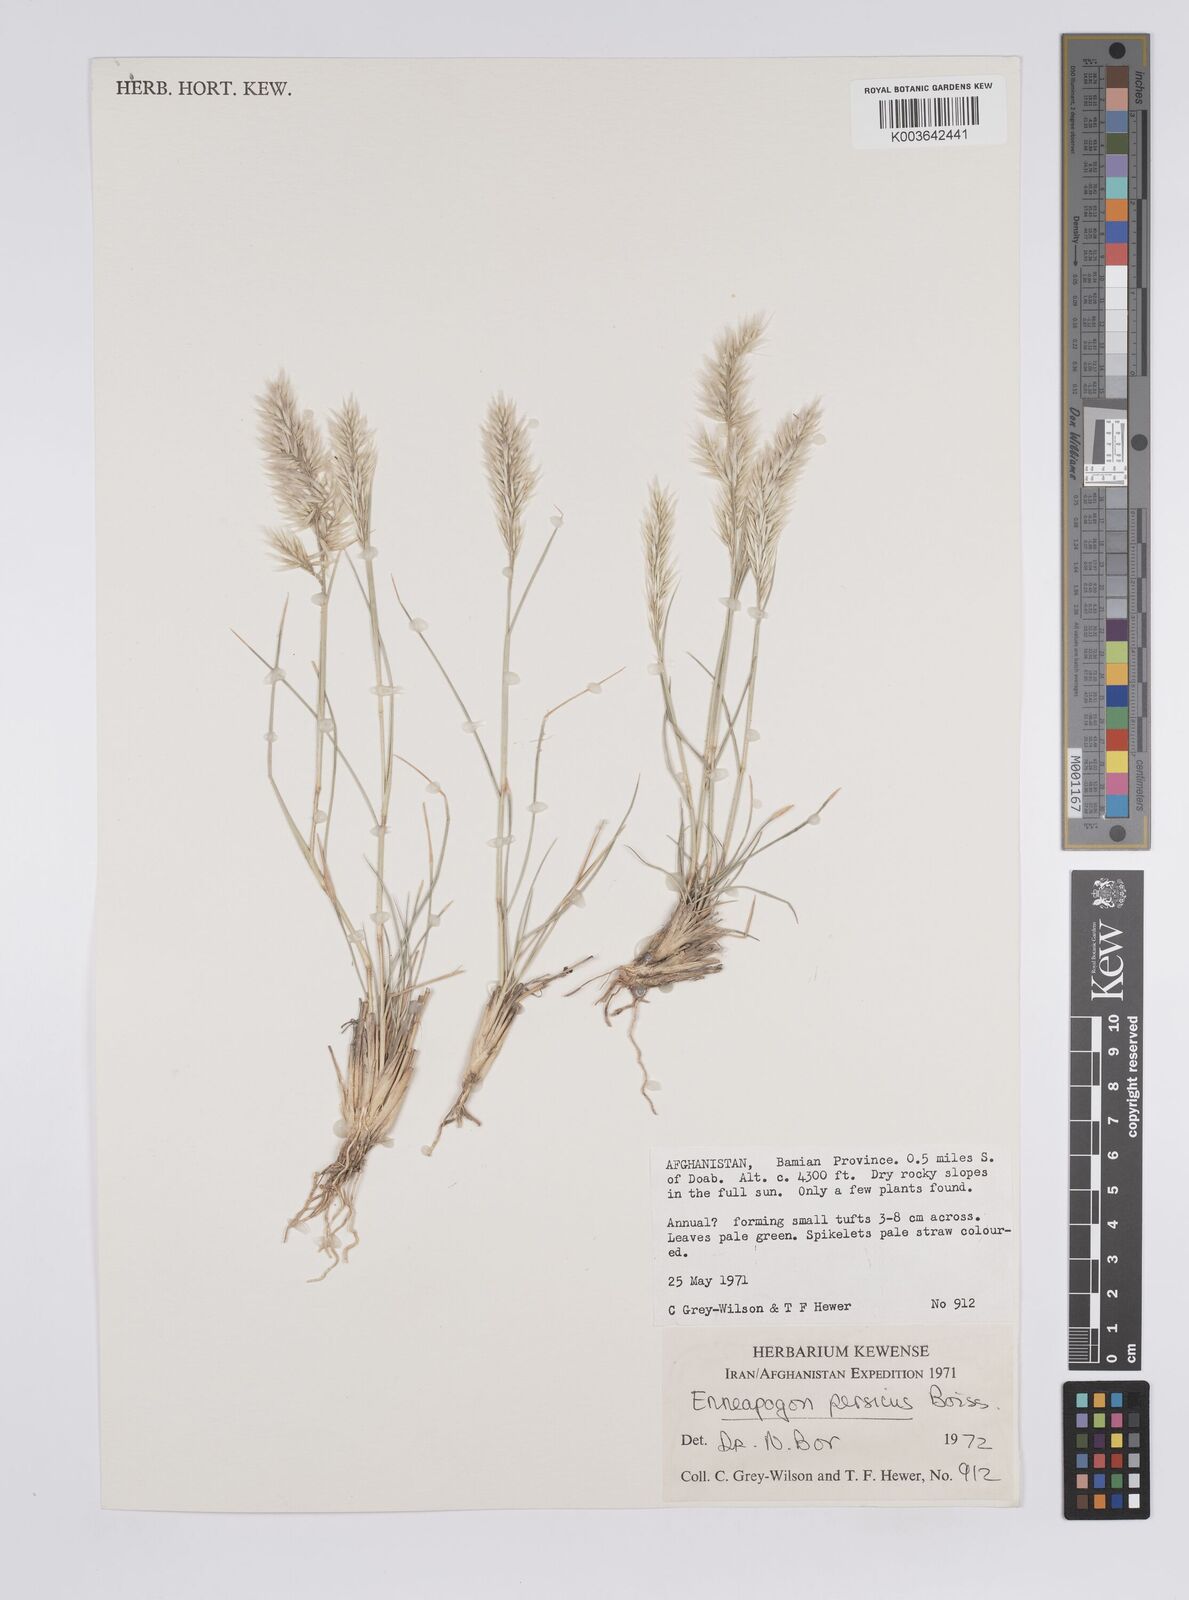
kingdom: Plantae
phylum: Tracheophyta
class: Liliopsida
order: Poales
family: Poaceae
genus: Enneapogon
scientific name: Enneapogon persicus
